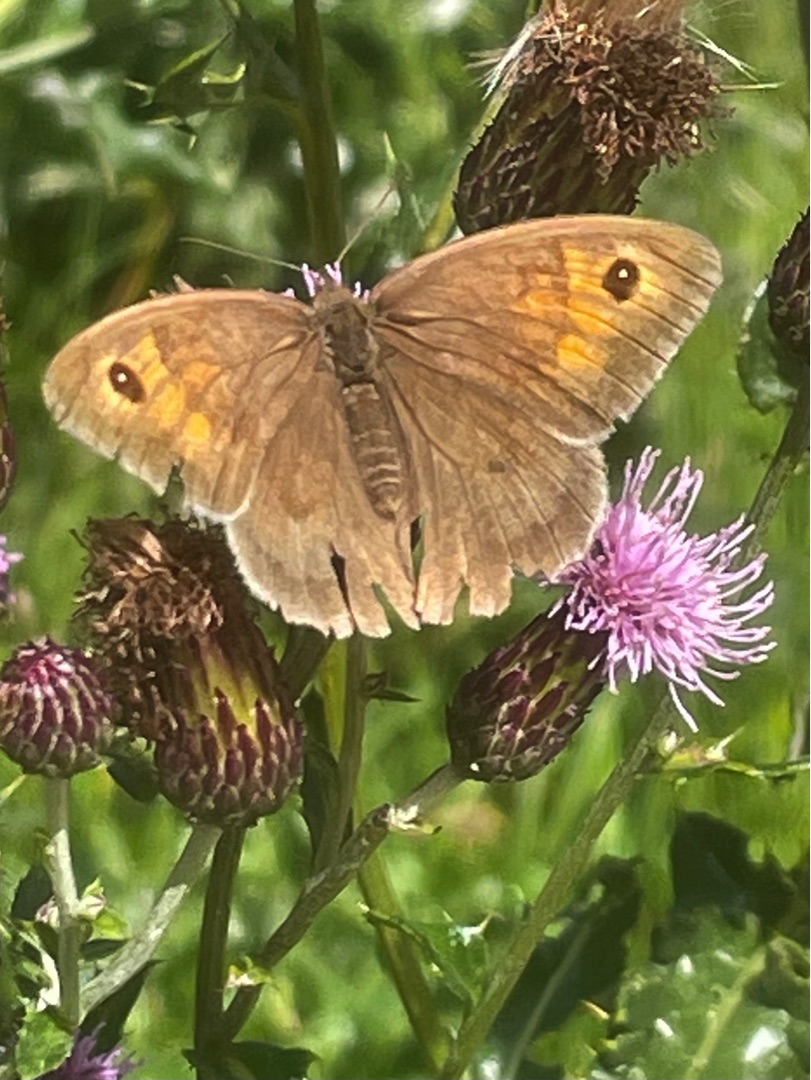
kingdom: Animalia
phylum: Arthropoda
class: Insecta
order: Lepidoptera
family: Nymphalidae
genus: Maniola
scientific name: Maniola jurtina
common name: Græsrandøje
